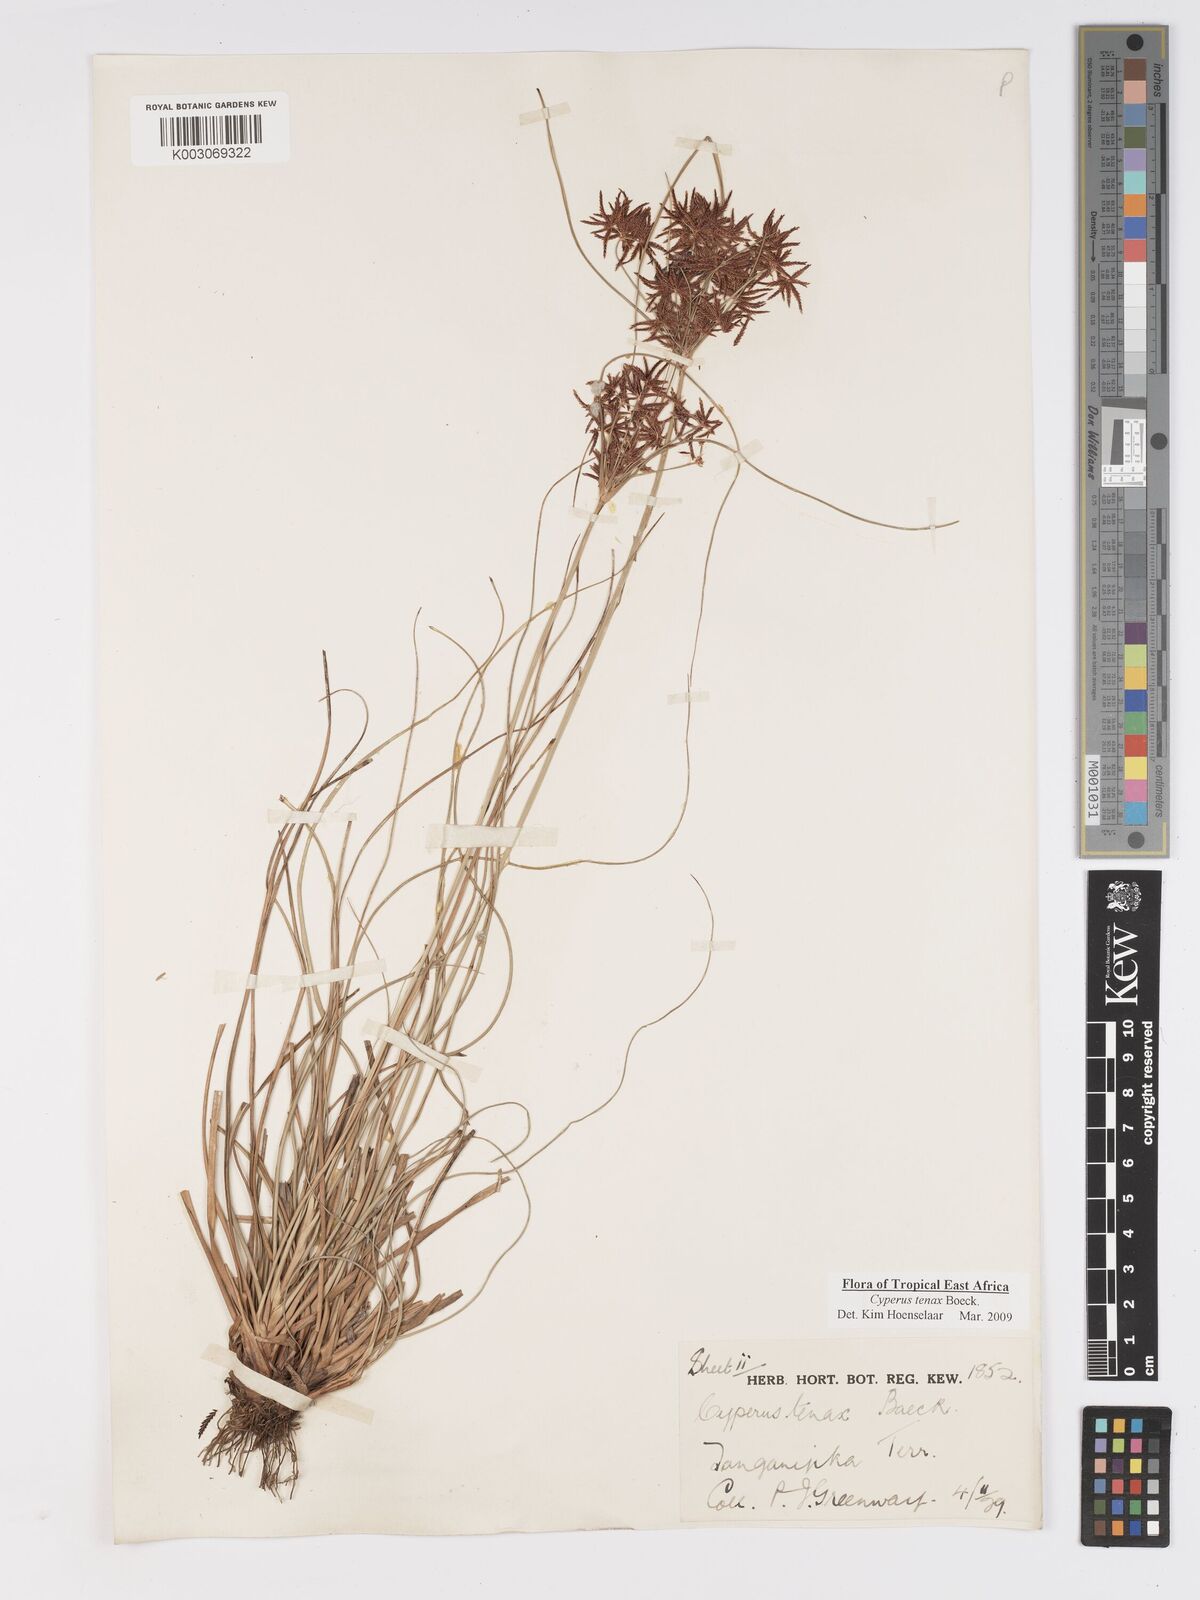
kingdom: Plantae
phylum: Tracheophyta
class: Liliopsida
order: Poales
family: Cyperaceae
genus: Cyperus
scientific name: Cyperus tenax
